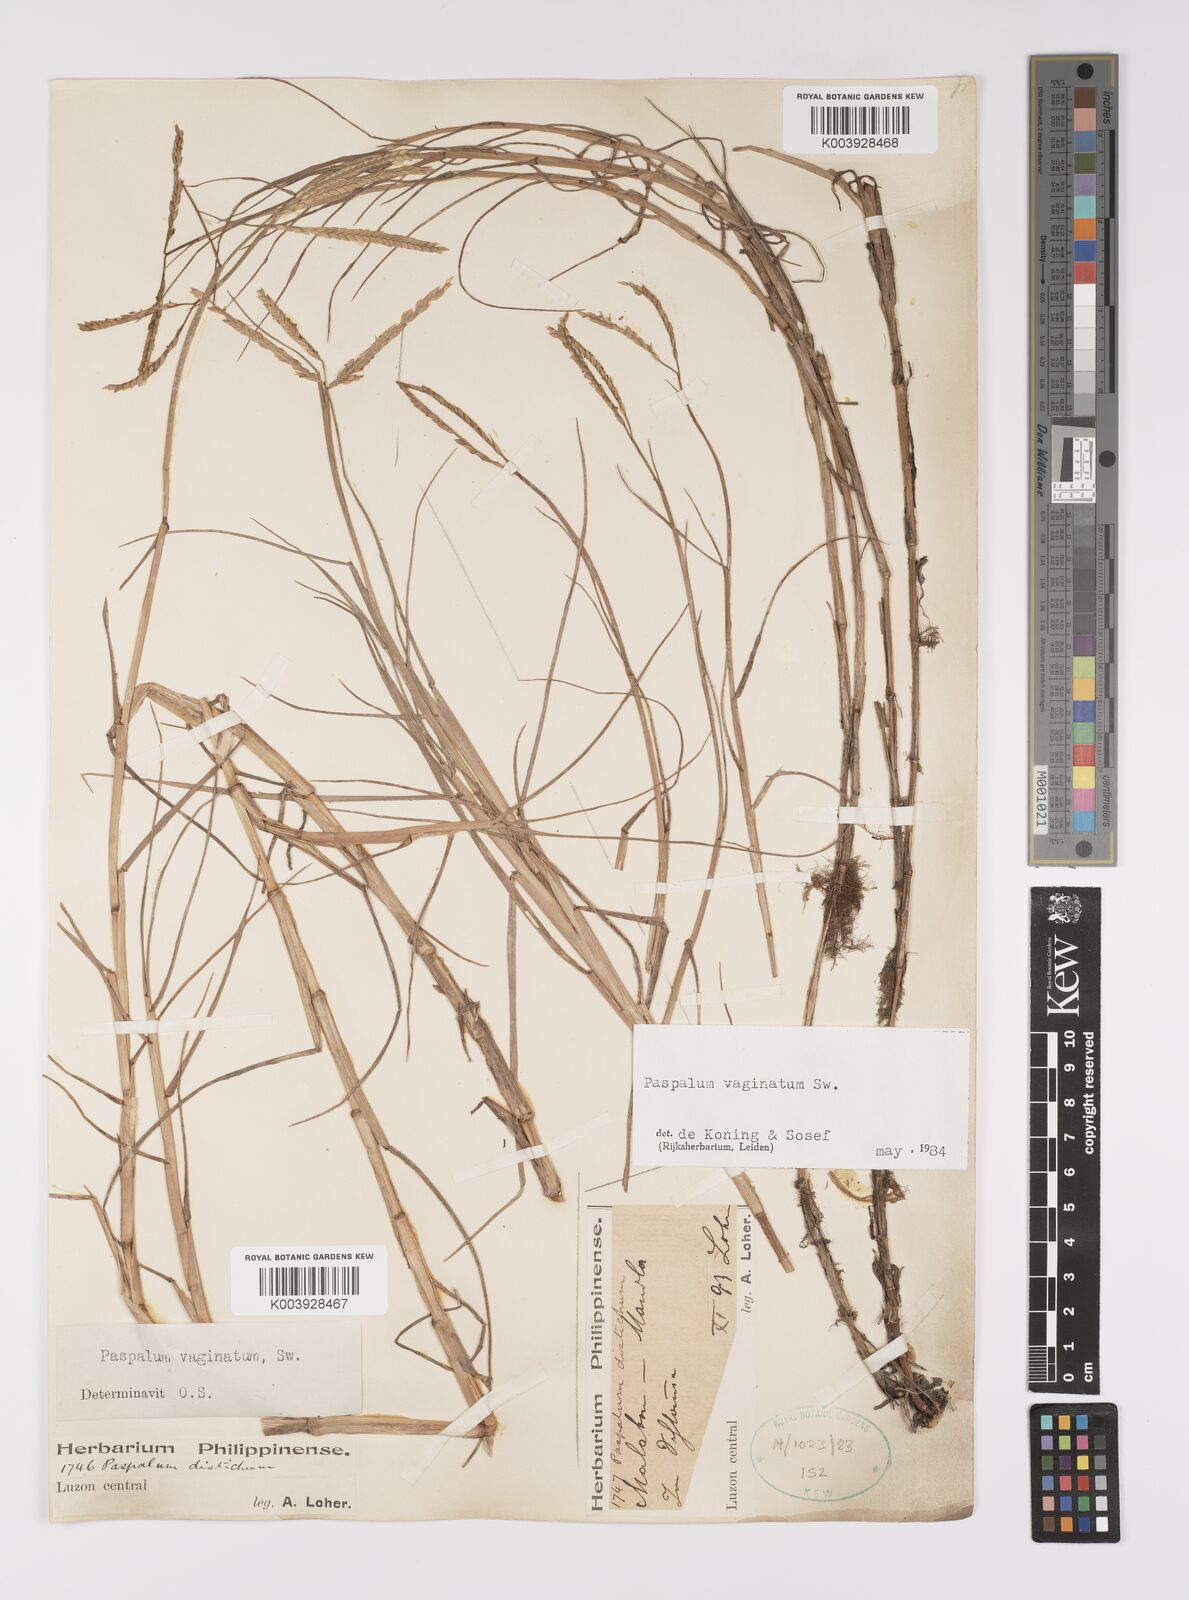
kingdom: Plantae
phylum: Tracheophyta
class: Liliopsida
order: Poales
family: Poaceae
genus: Paspalum
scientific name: Paspalum vaginatum
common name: Seashore paspalum
